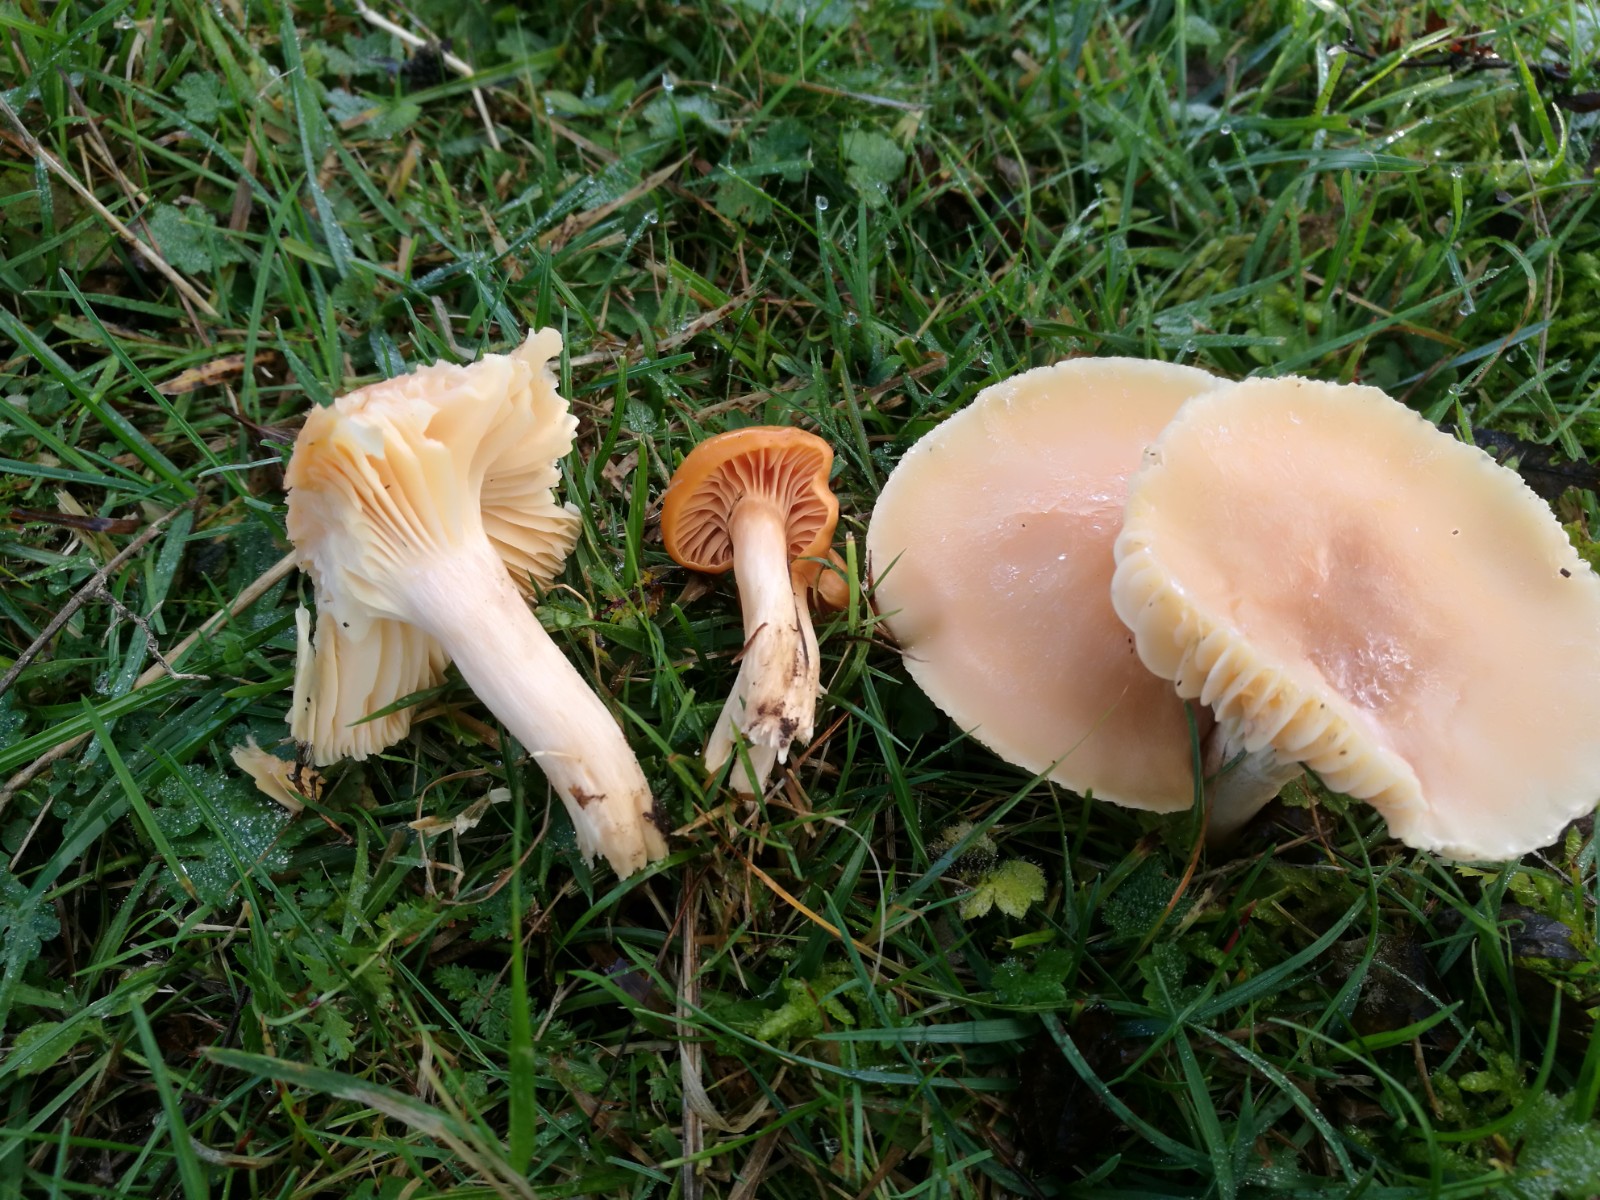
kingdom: Fungi
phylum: Basidiomycota
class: Agaricomycetes
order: Agaricales
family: Hygrophoraceae
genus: Cuphophyllus
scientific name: Cuphophyllus pratensis
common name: eng-vokshat
